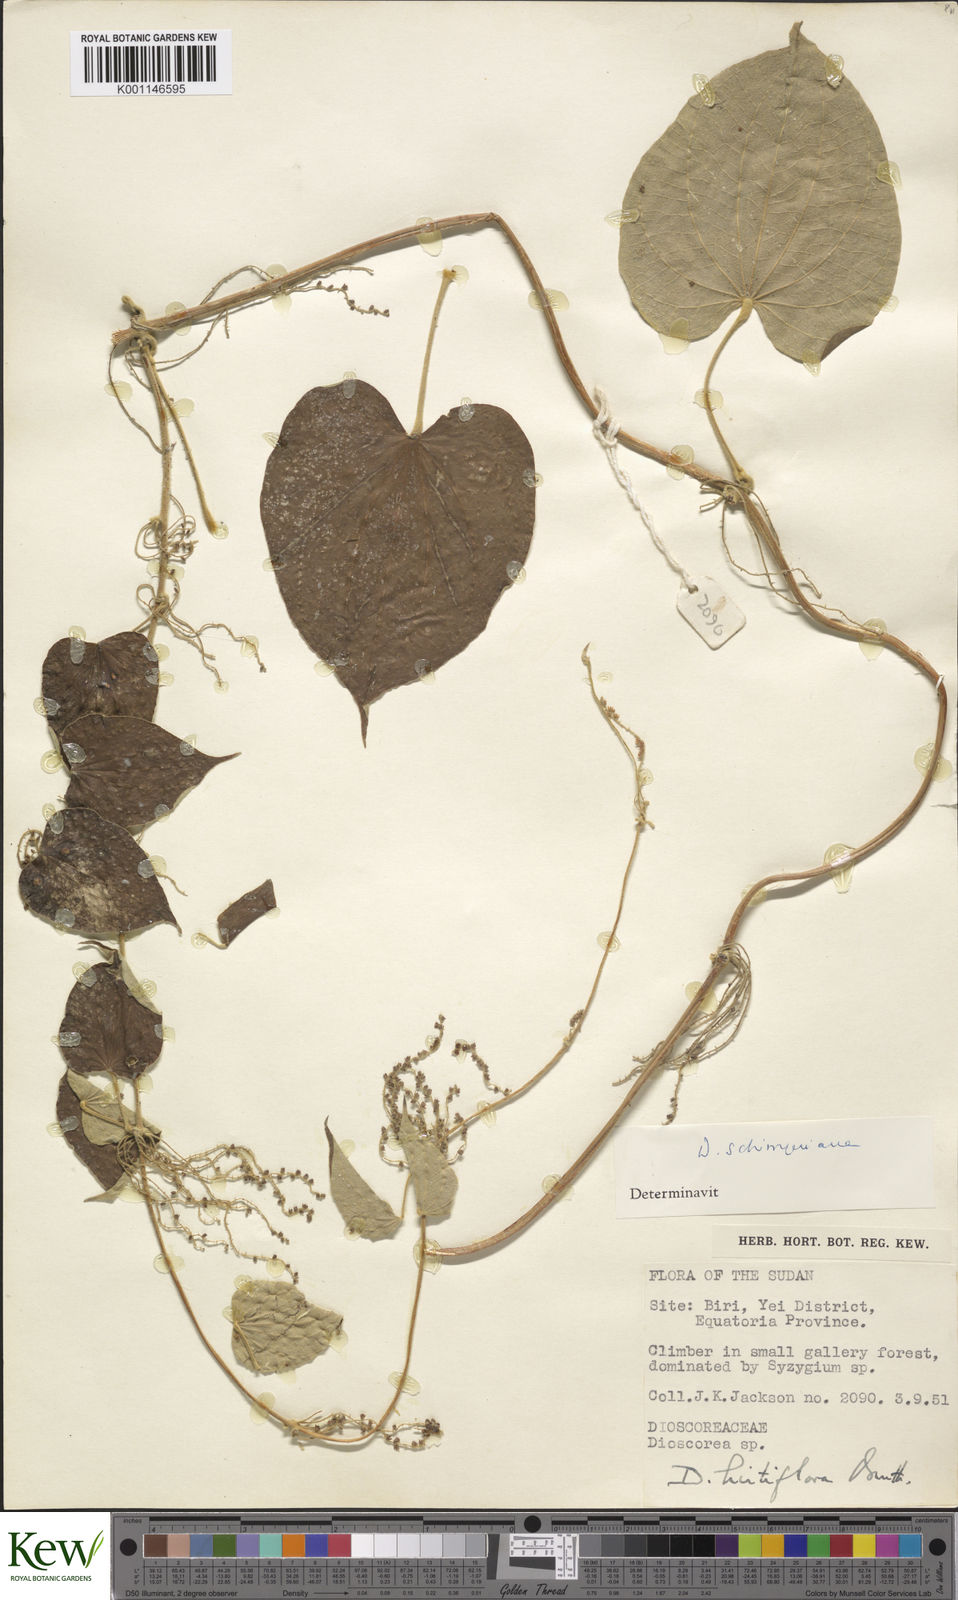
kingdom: Plantae
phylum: Tracheophyta
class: Liliopsida
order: Dioscoreales
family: Dioscoreaceae
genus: Dioscorea
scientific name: Dioscorea schimperiana
